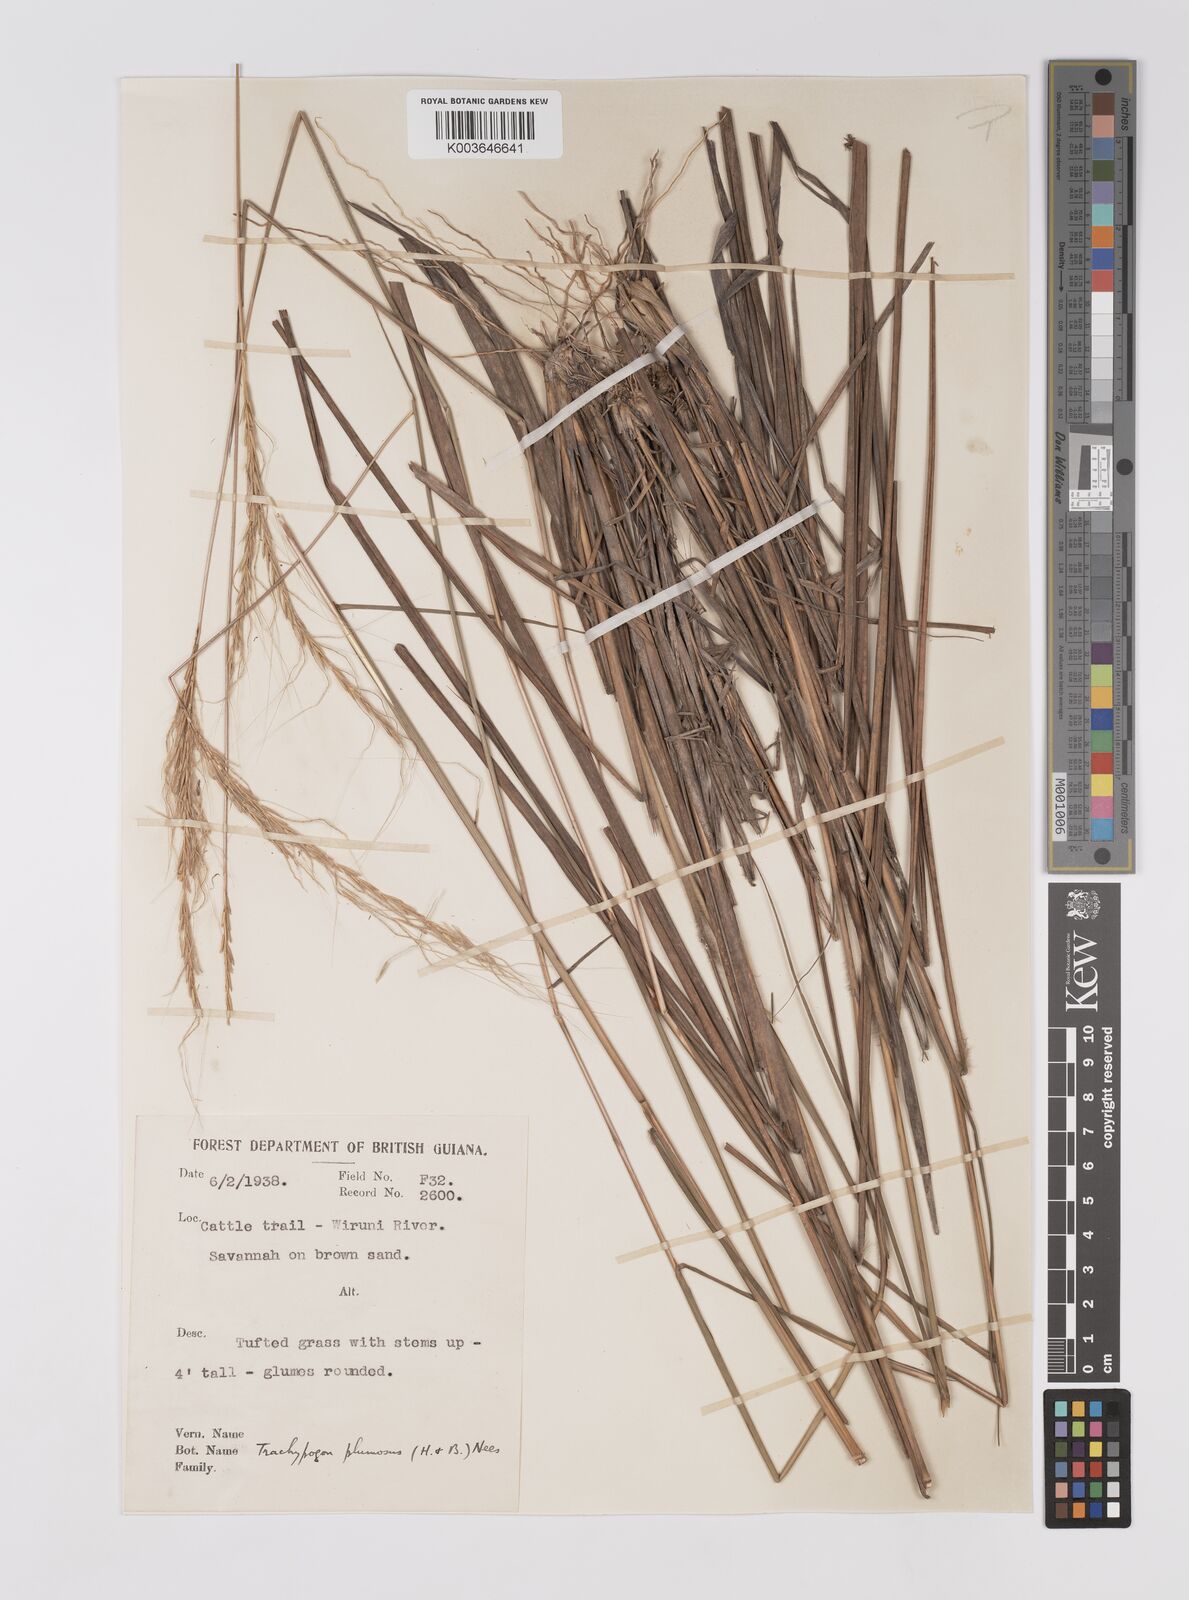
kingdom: Plantae
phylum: Tracheophyta
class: Liliopsida
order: Poales
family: Poaceae
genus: Trachypogon
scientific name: Trachypogon spicatus
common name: Crinkle-awn
